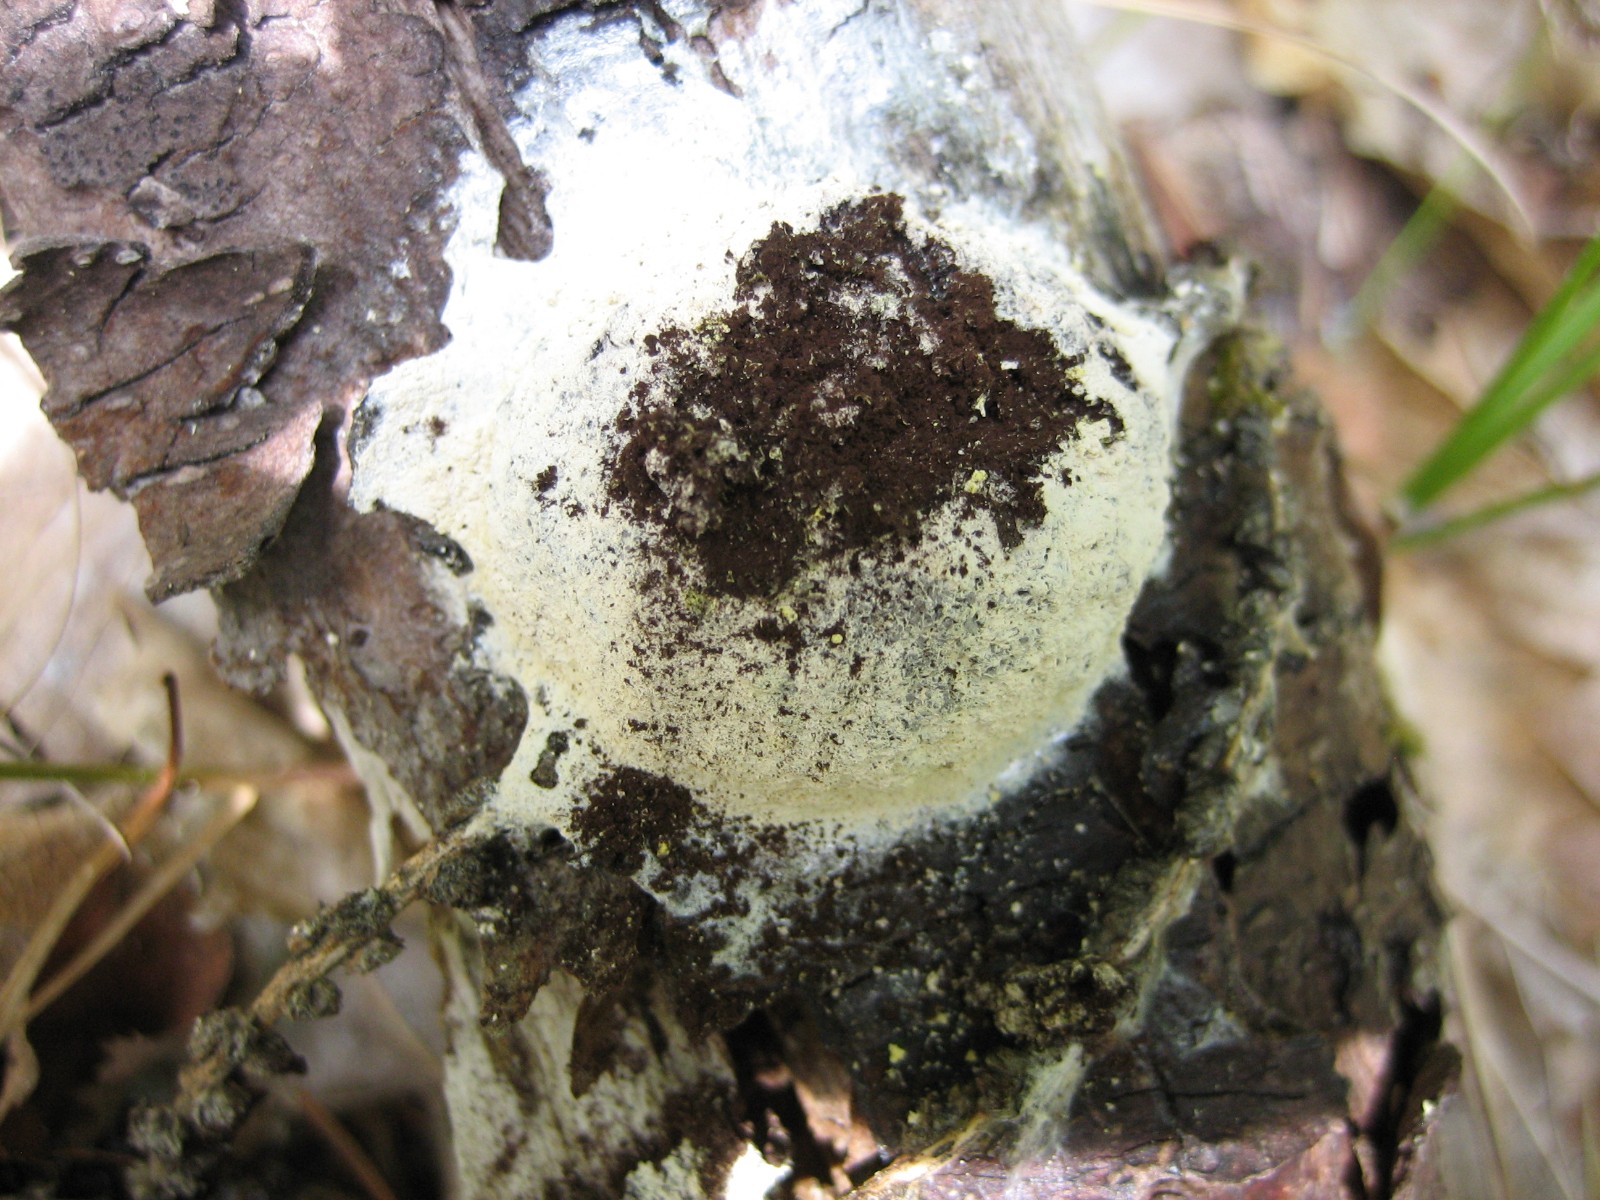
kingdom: Protozoa
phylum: Mycetozoa
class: Myxomycetes
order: Physarales
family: Physaraceae
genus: Fuligo
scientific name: Fuligo septica
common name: gul troldsmør
